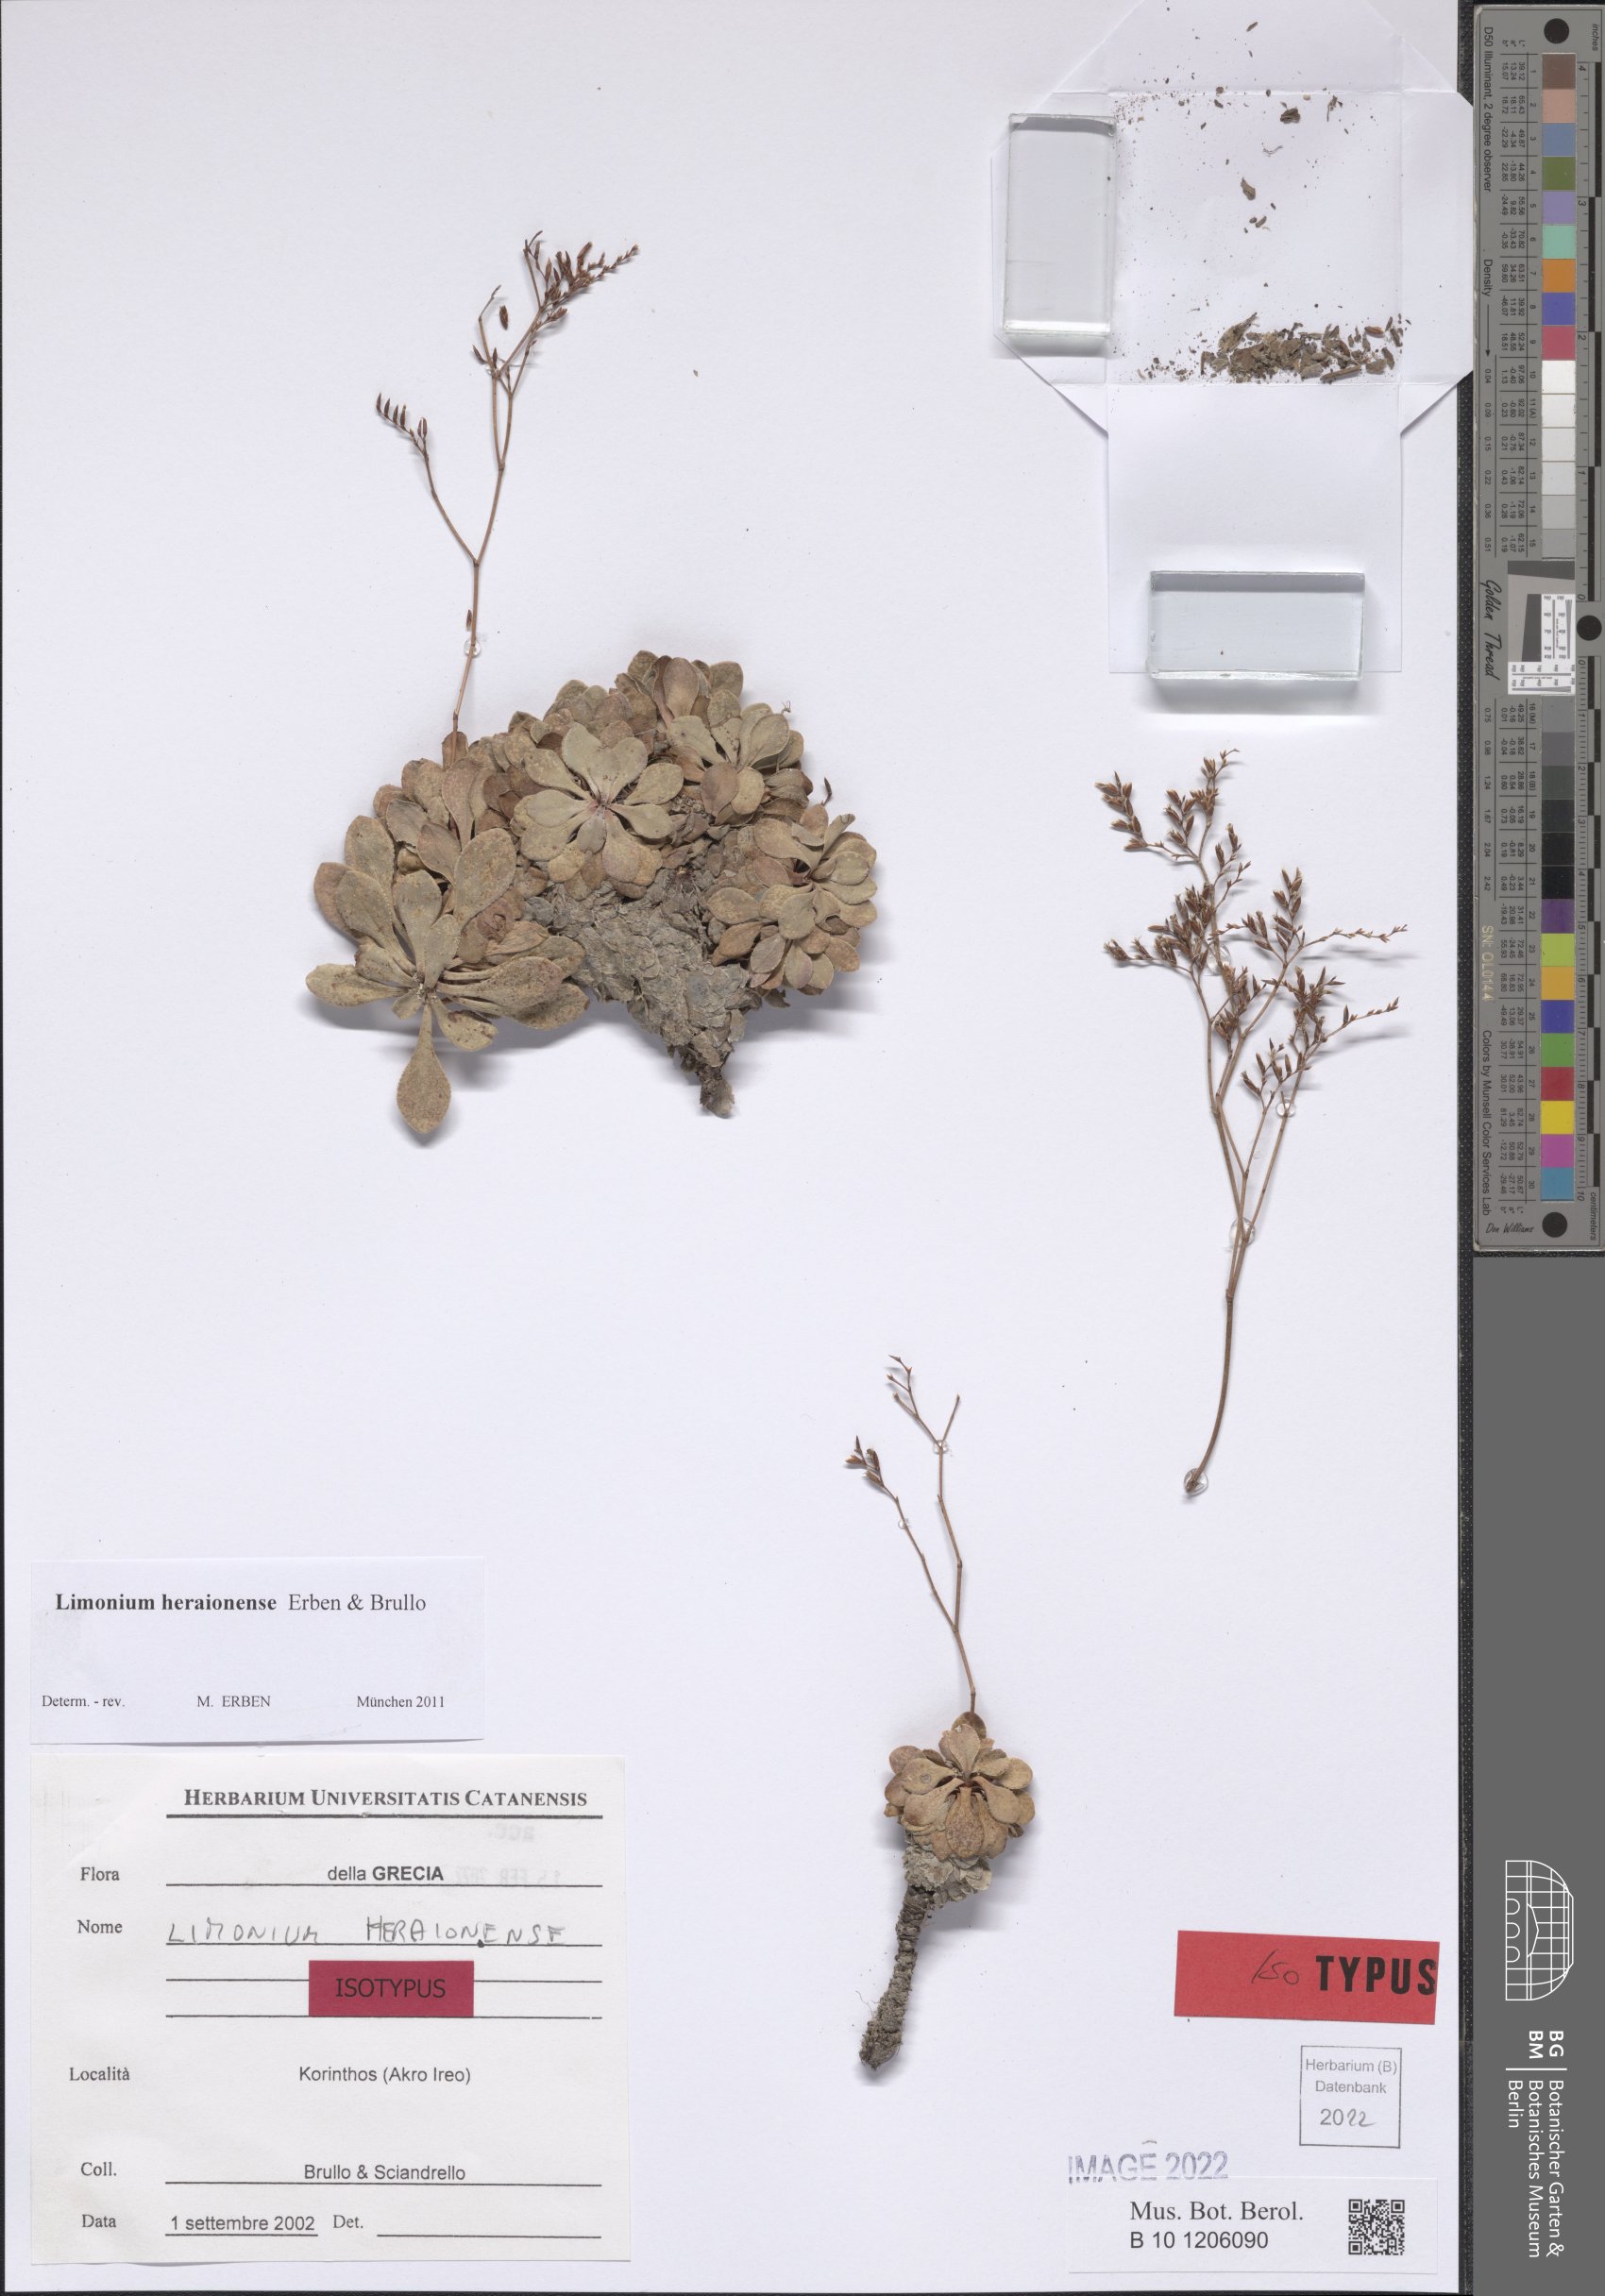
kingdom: Plantae
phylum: Tracheophyta
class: Magnoliopsida
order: Caryophyllales
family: Plumbaginaceae
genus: Limonium
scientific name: Limonium heraionense
